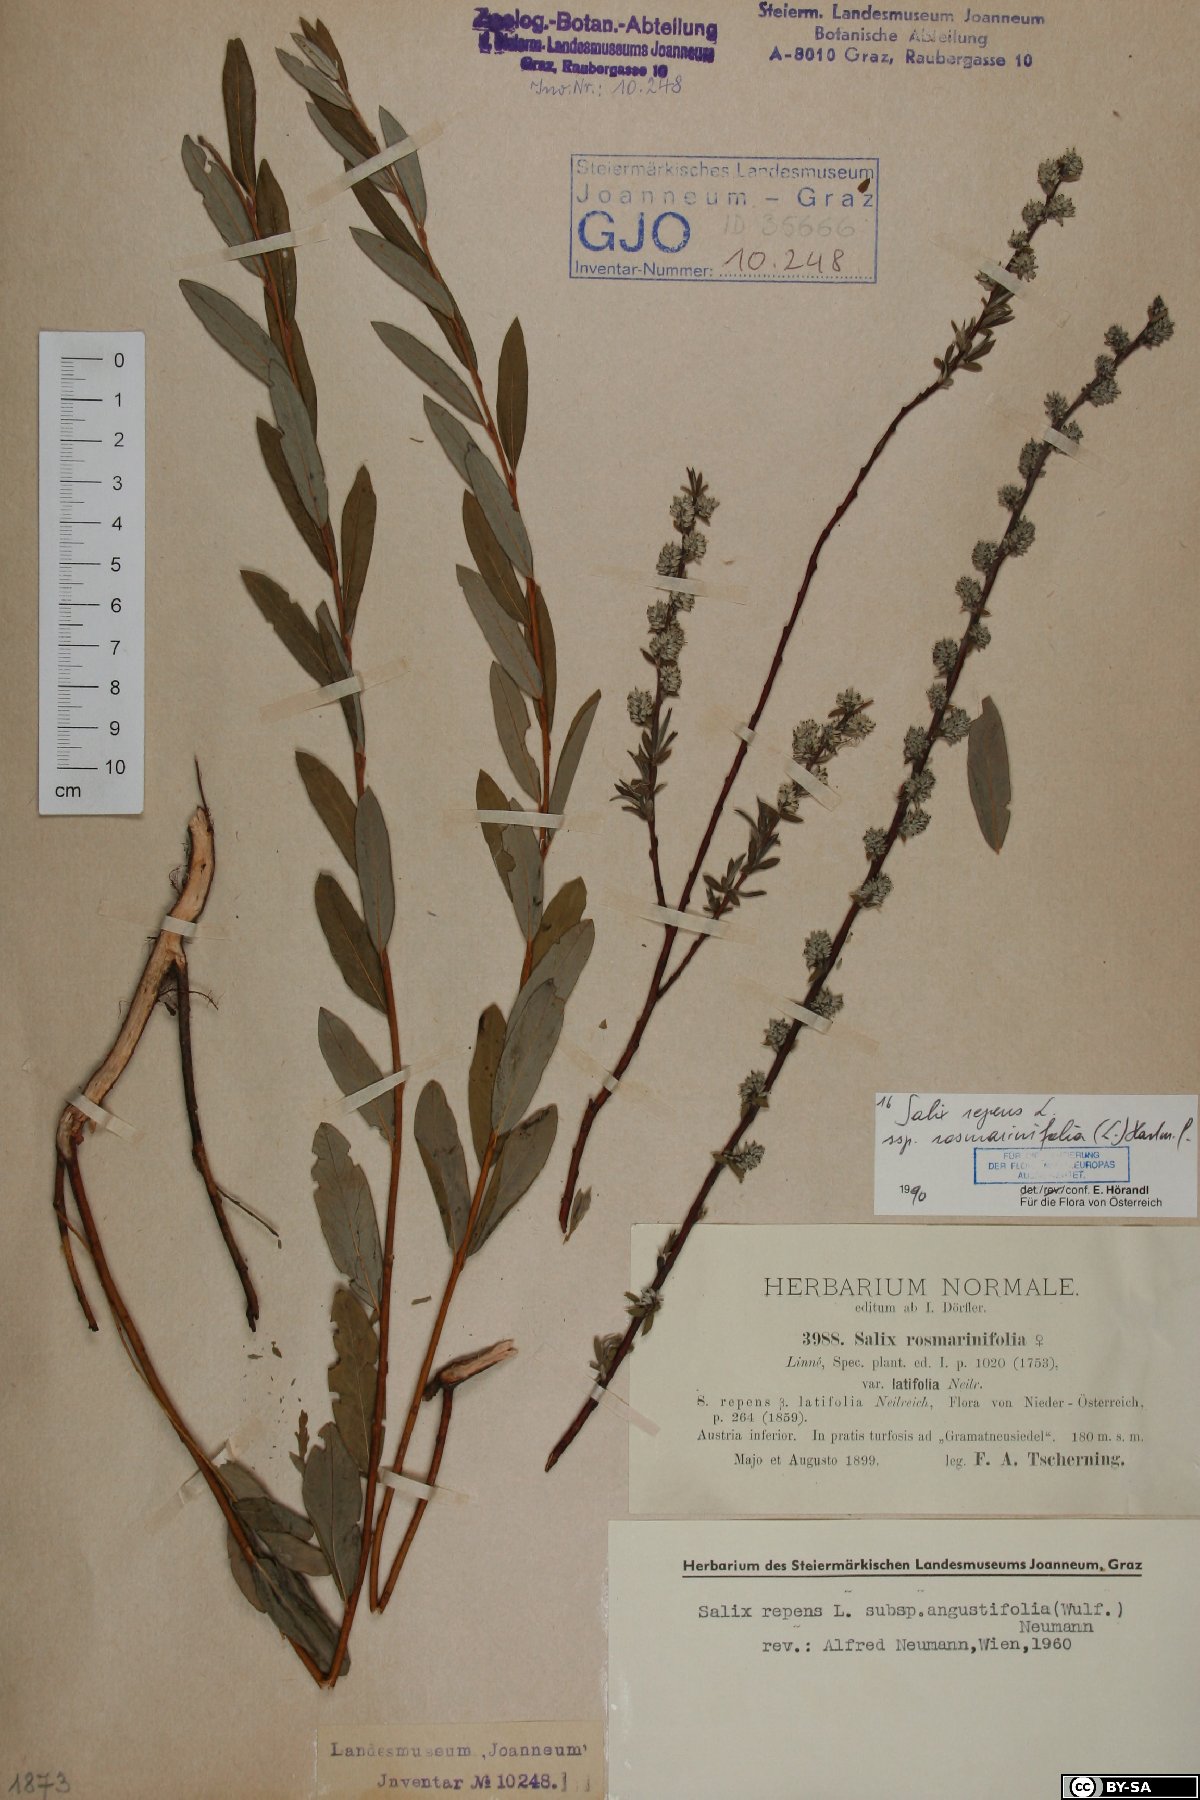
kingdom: Plantae
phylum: Tracheophyta
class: Magnoliopsida
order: Malpighiales
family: Salicaceae
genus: Salix
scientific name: Salix repens
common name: Creeping willow
